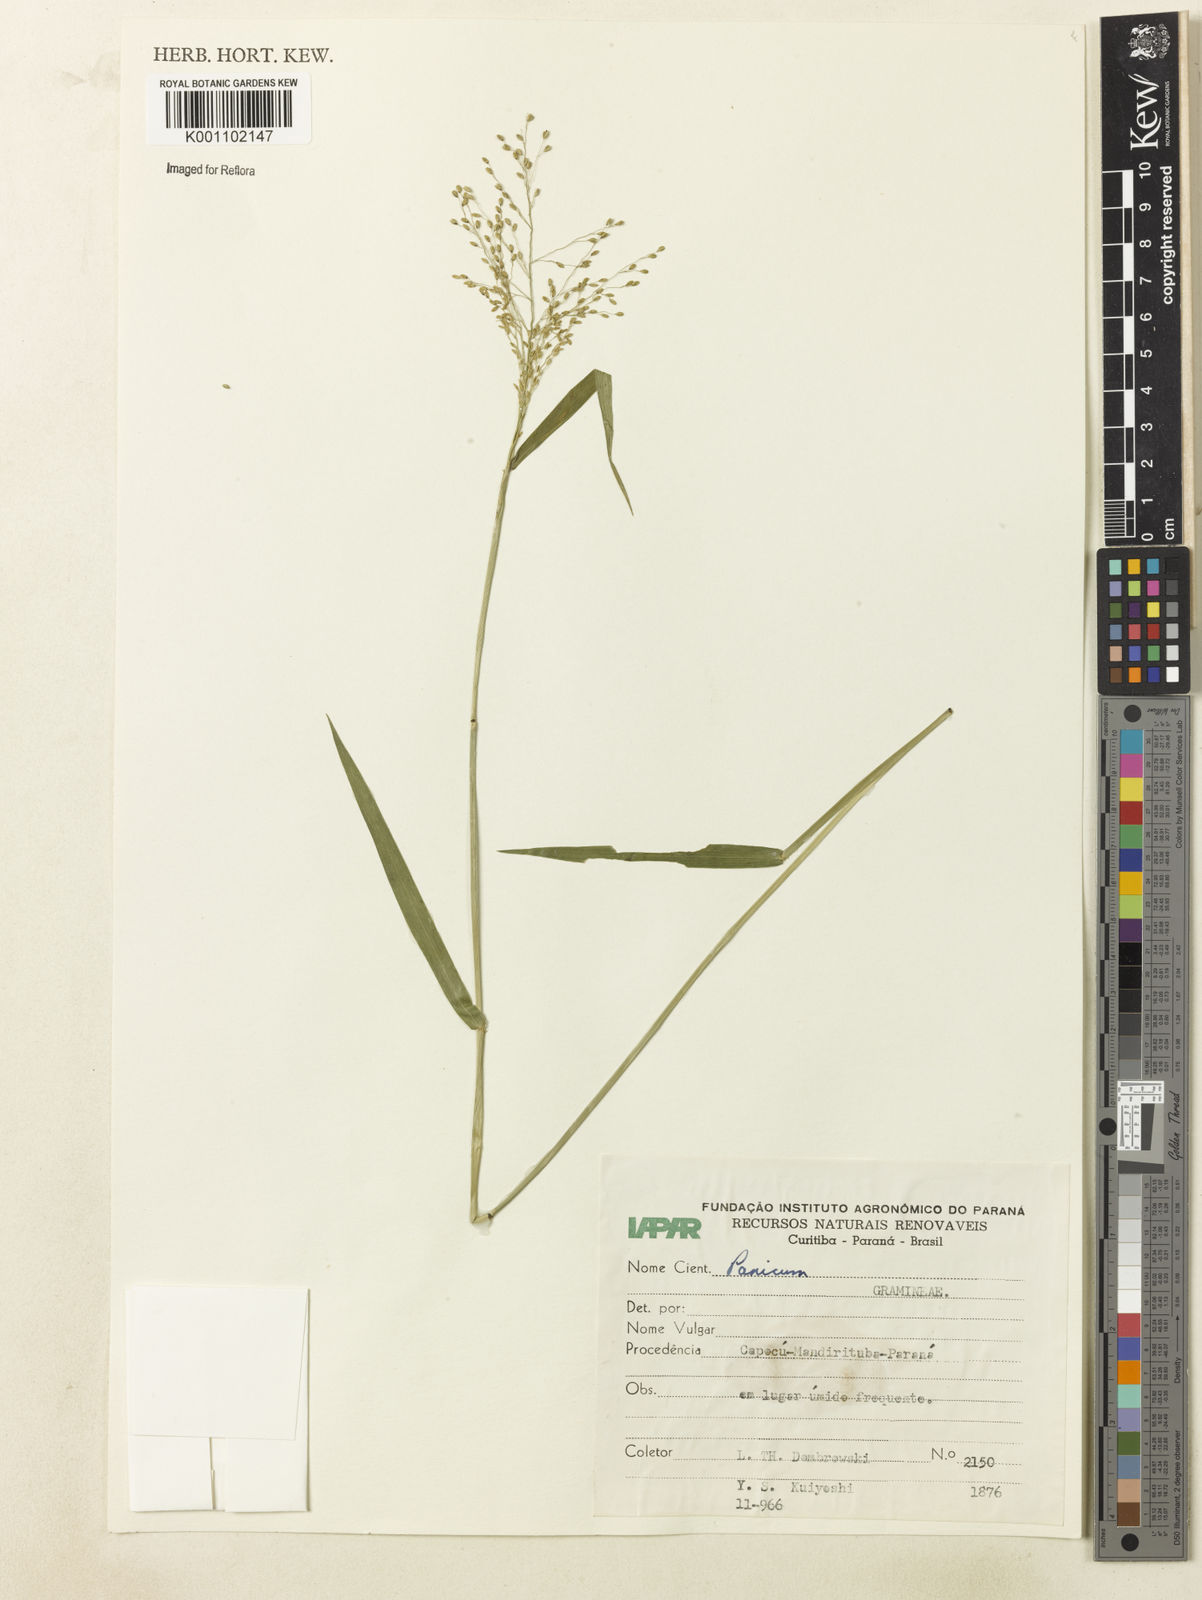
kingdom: Plantae
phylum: Tracheophyta
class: Liliopsida
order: Poales
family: Poaceae
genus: Dichanthelium
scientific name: Dichanthelium stigmosum
